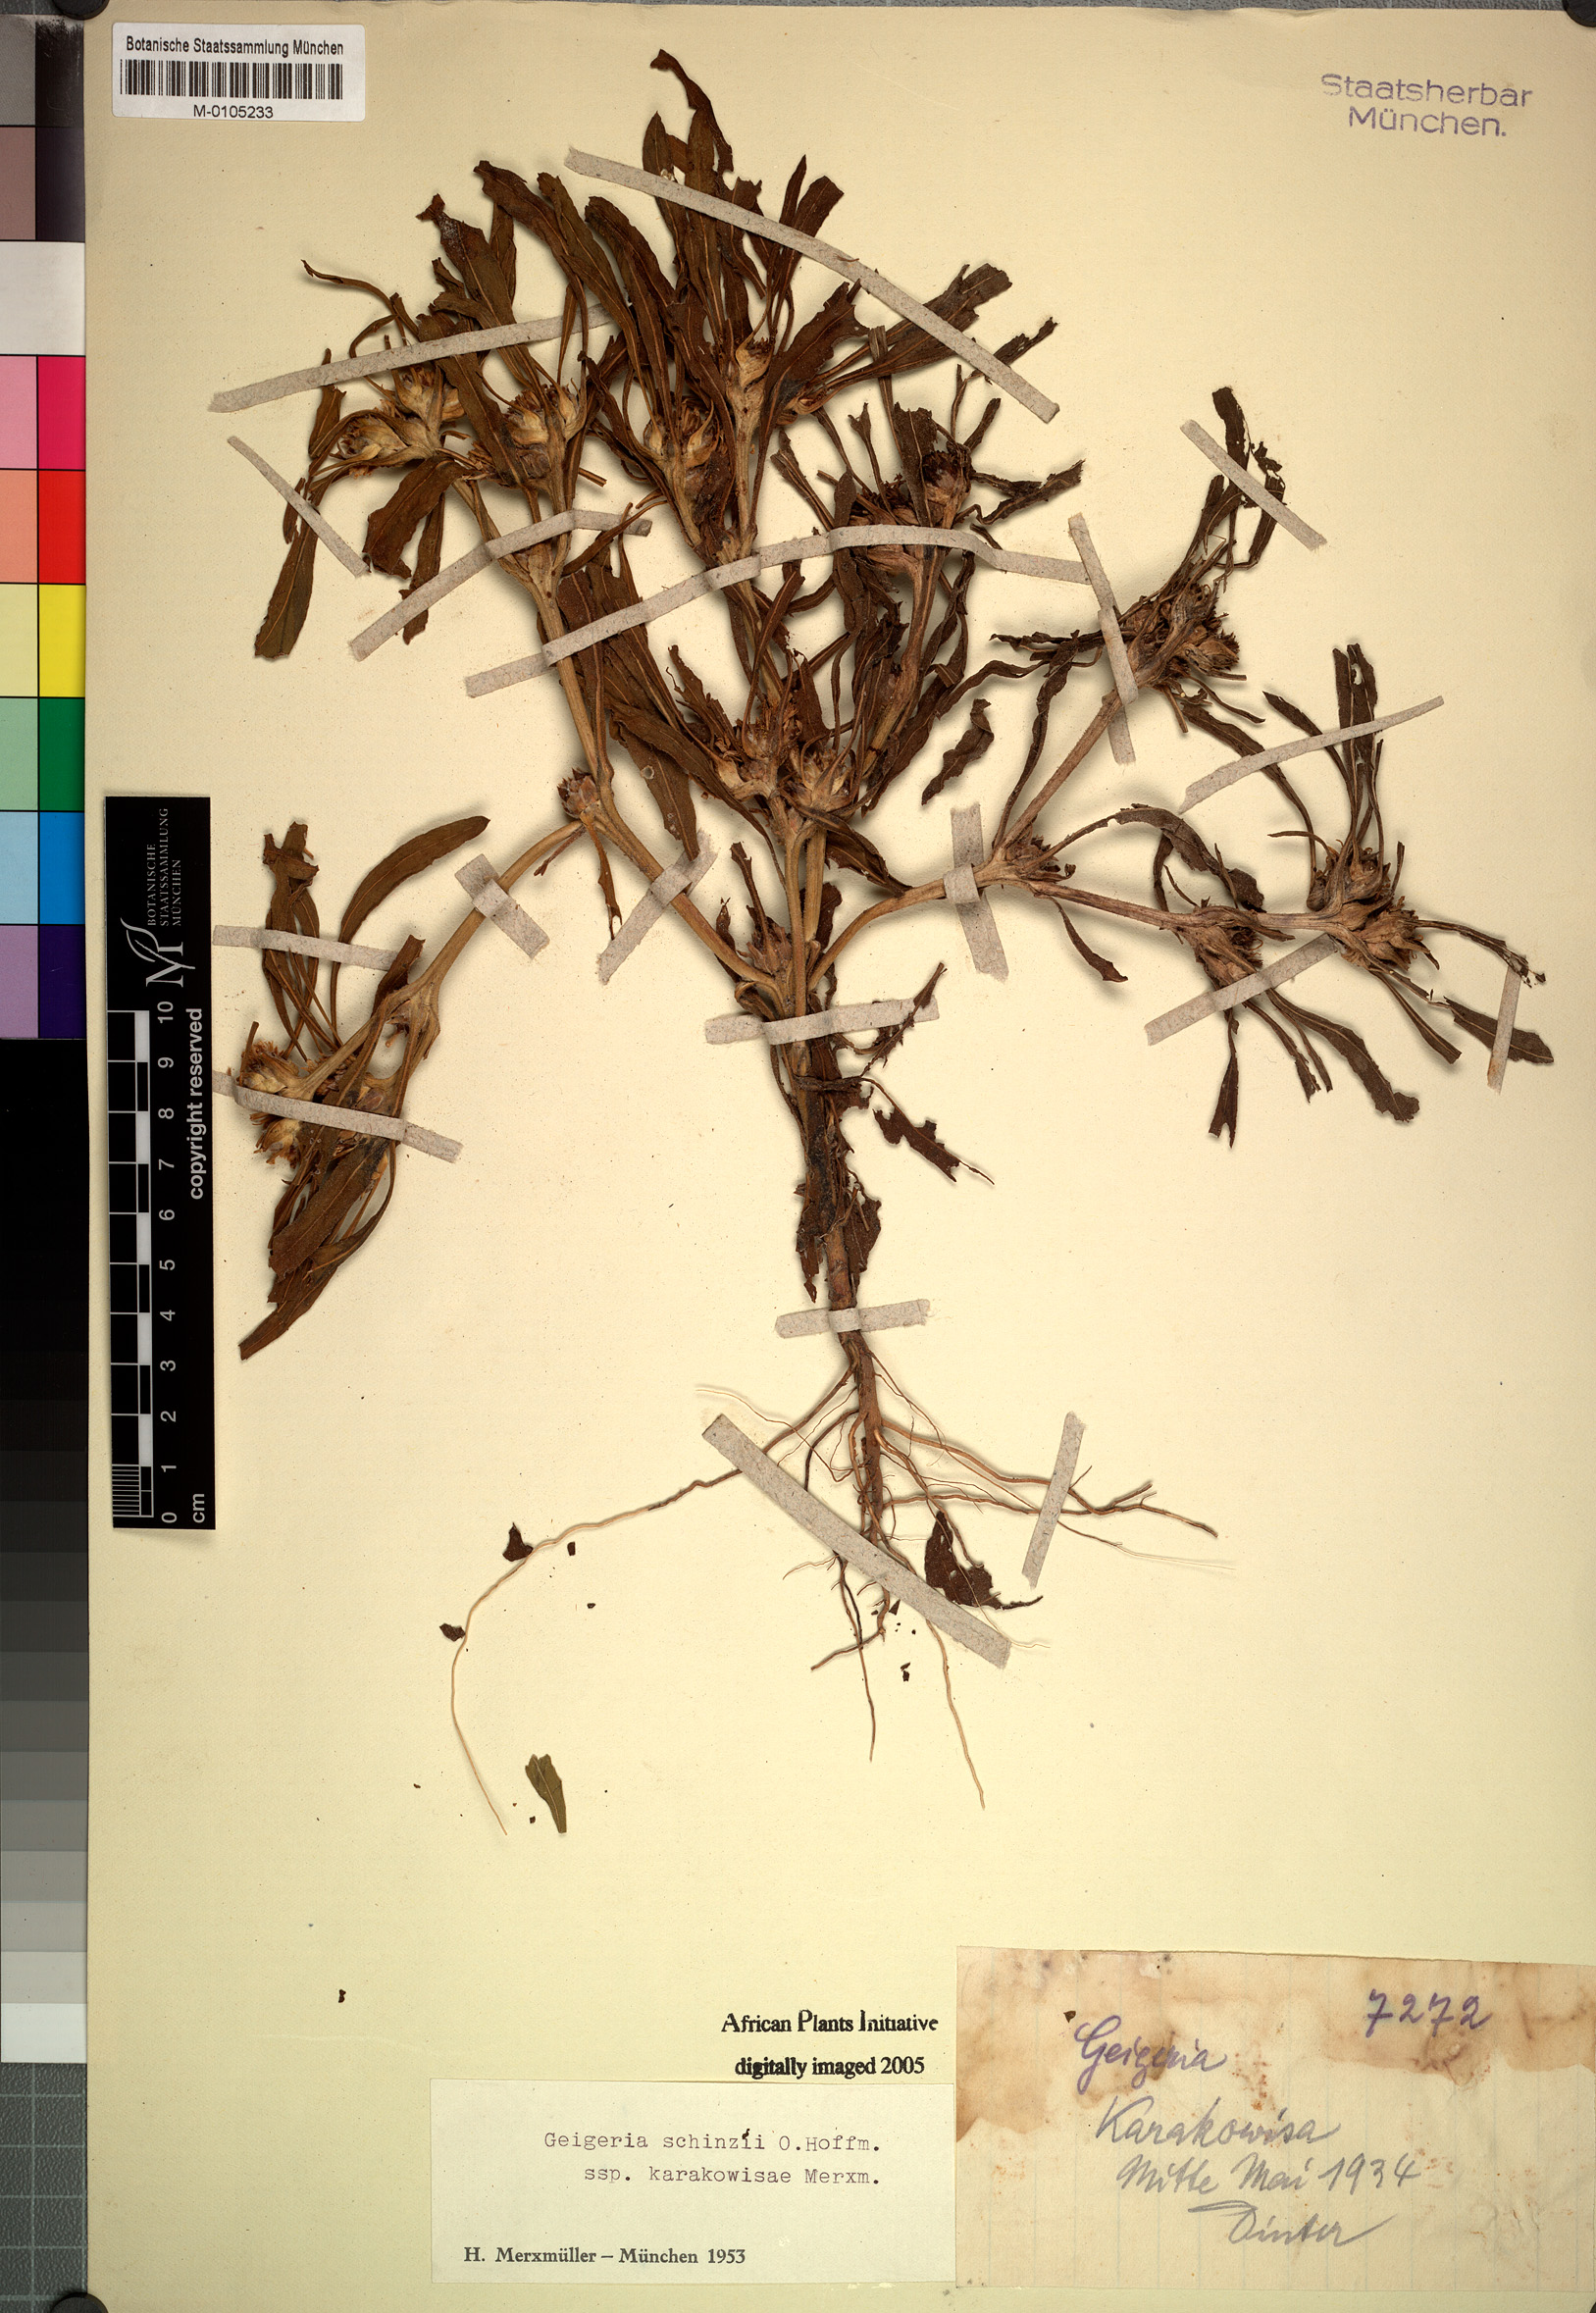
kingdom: Plantae
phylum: Tracheophyta
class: Magnoliopsida
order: Asterales
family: Asteraceae
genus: Geigeria
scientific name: Geigeria schinzii
